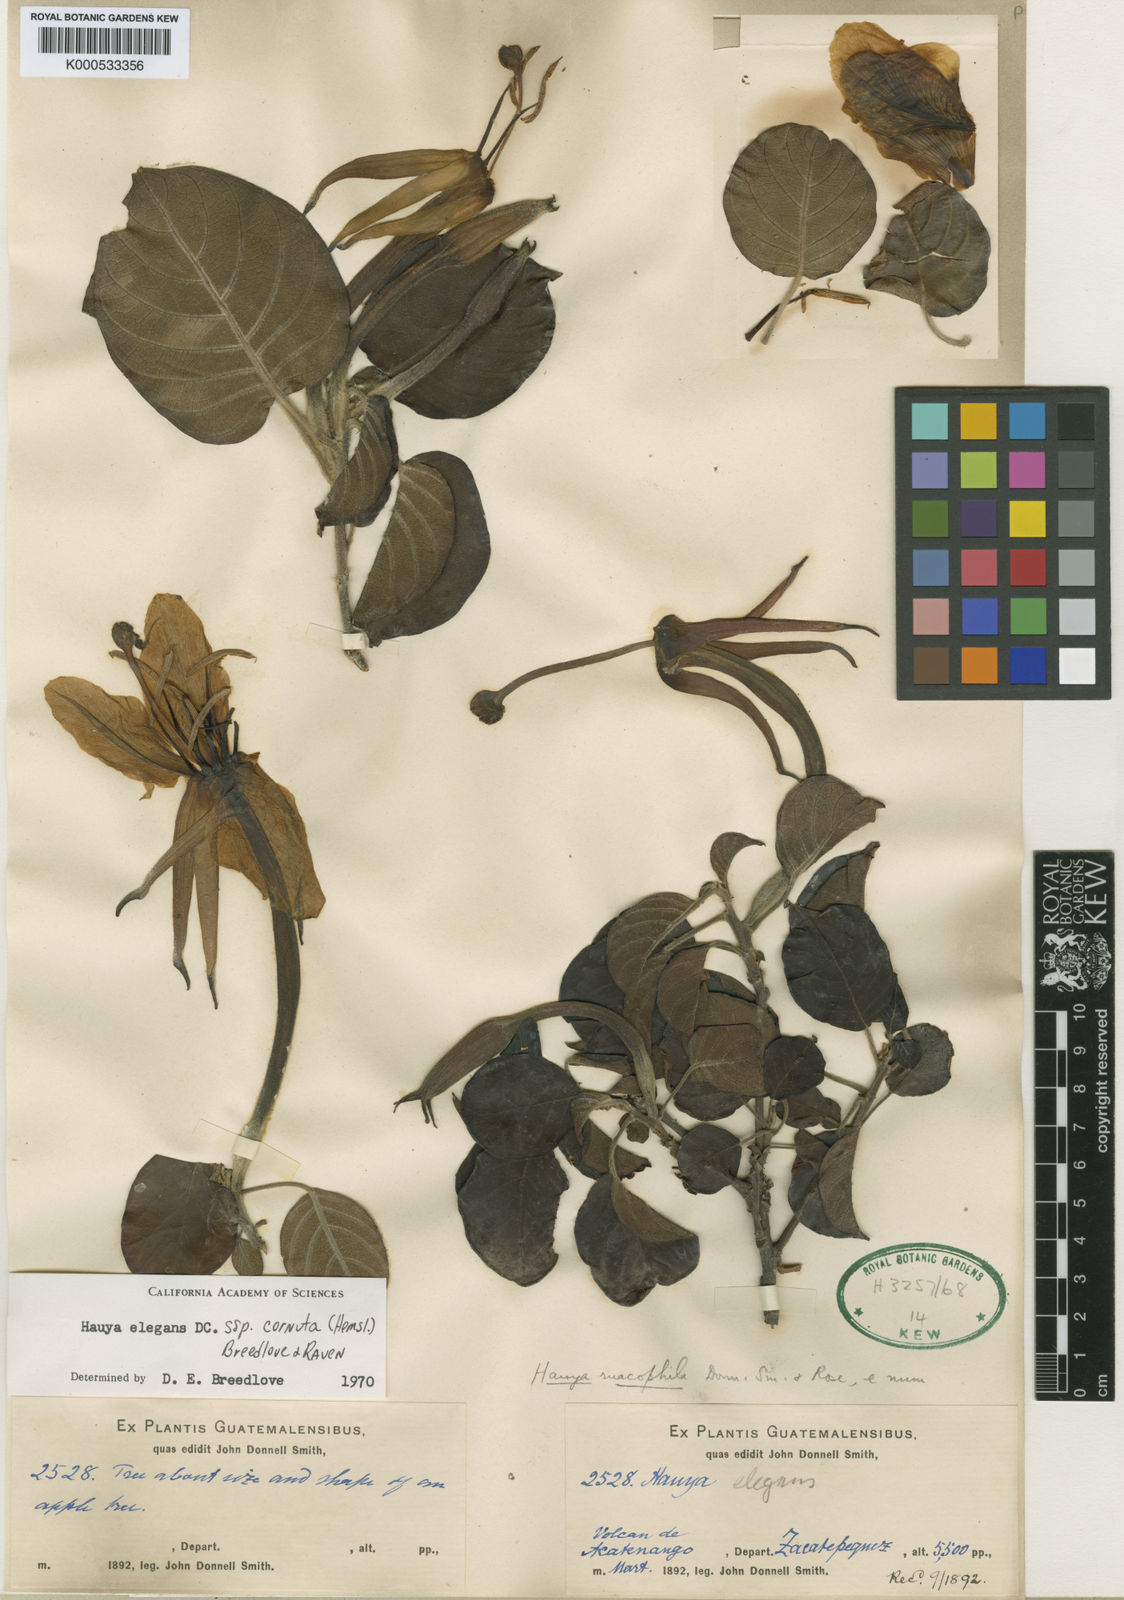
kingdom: Plantae
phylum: Tracheophyta
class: Magnoliopsida
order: Myrtales
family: Onagraceae
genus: Hauya
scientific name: Hauya elegans
